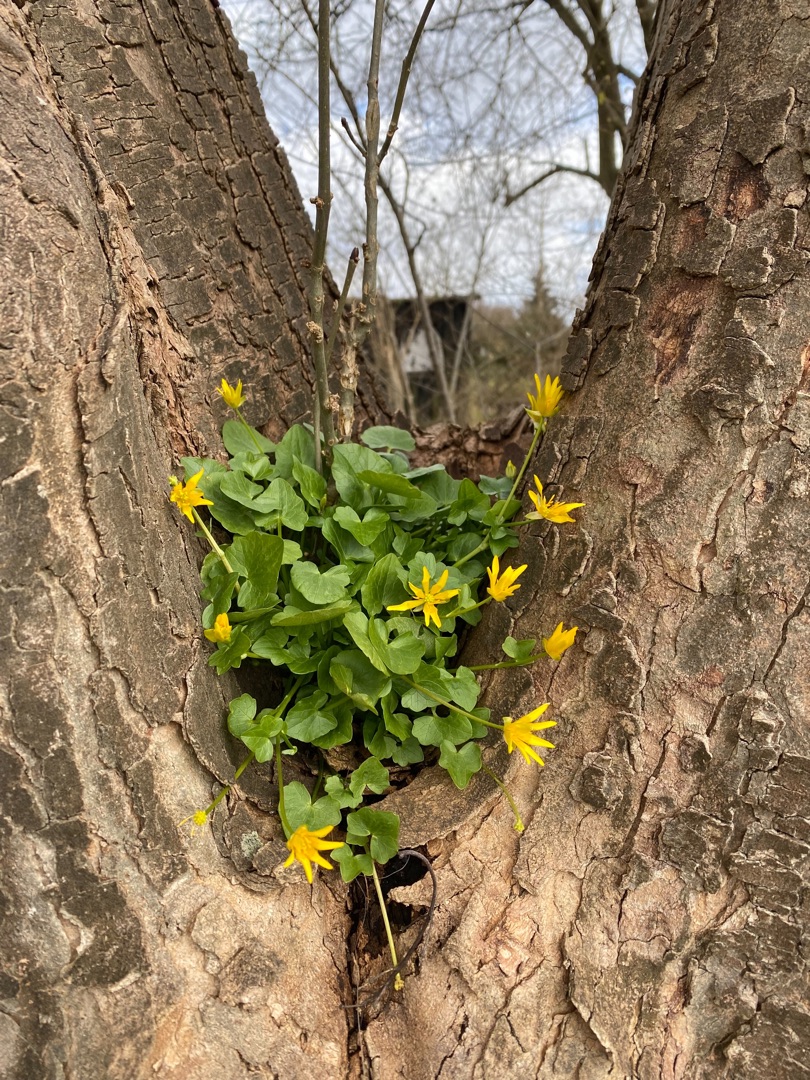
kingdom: Plantae
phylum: Tracheophyta
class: Magnoliopsida
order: Ranunculales
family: Ranunculaceae
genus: Ficaria
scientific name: Ficaria verna
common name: Vorterod
